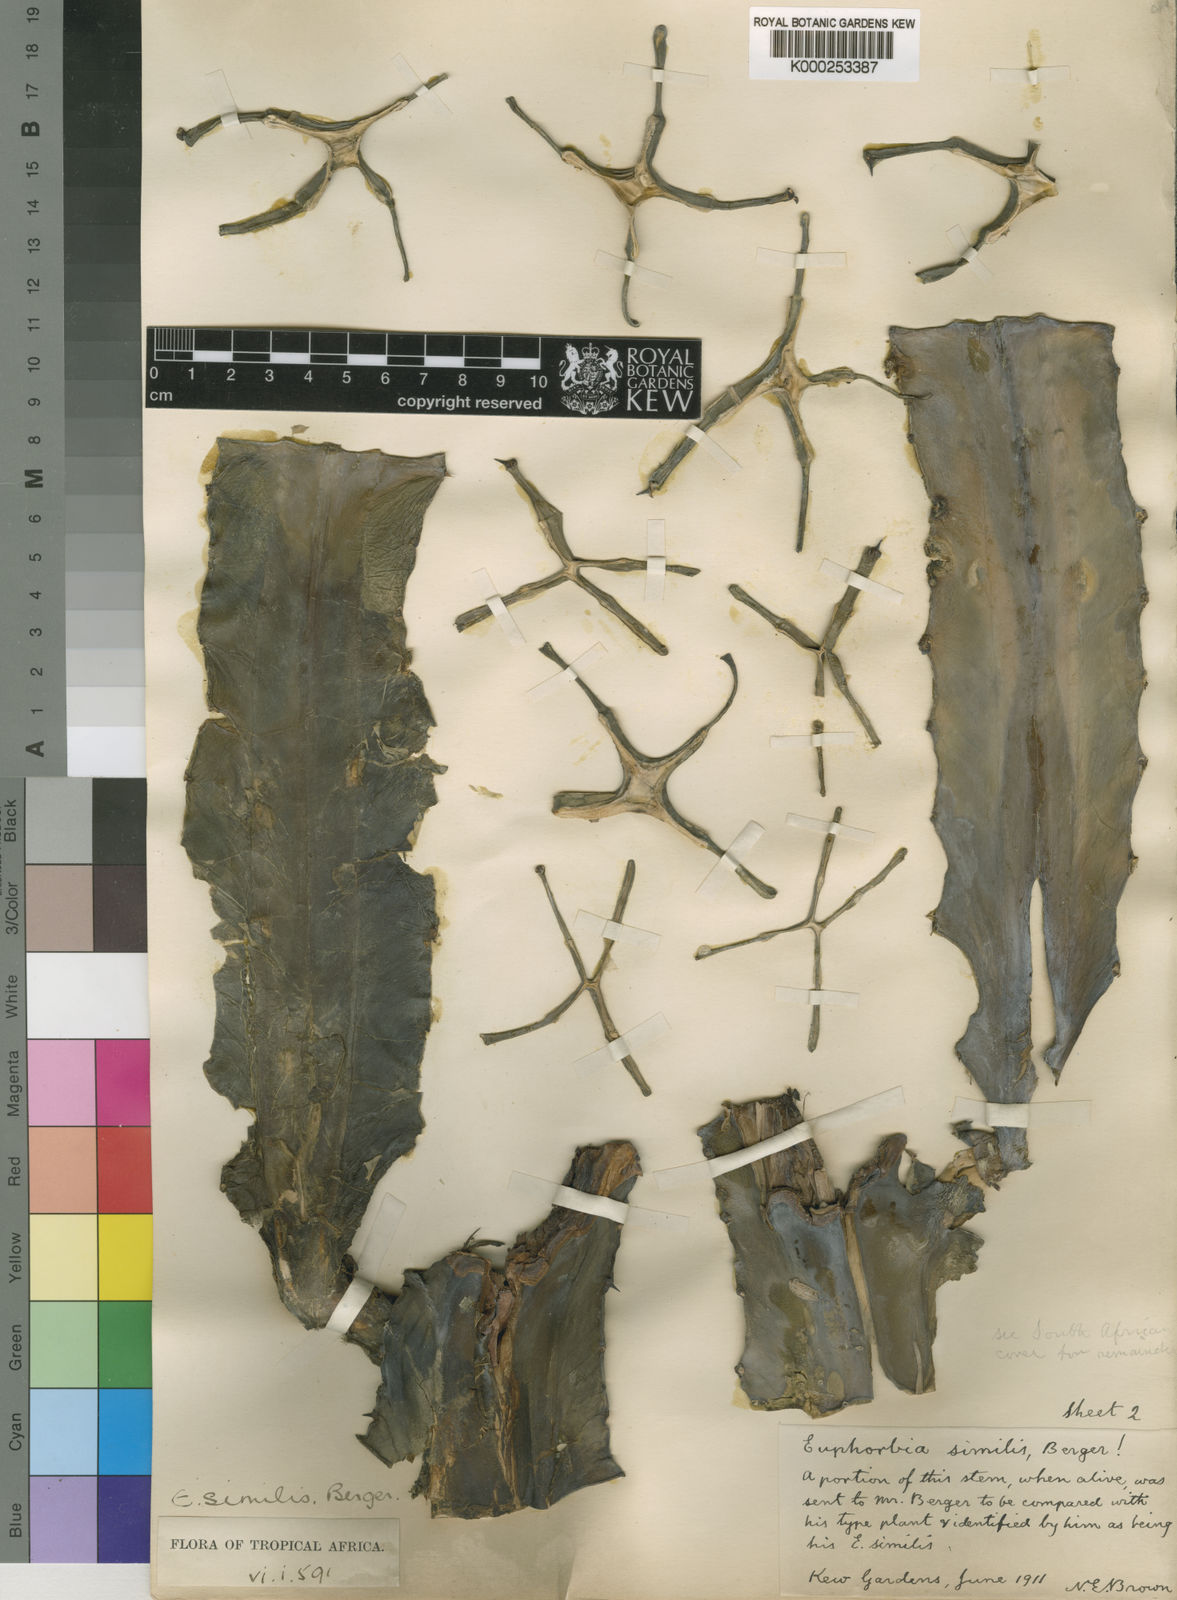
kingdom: Plantae
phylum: Tracheophyta
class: Magnoliopsida
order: Malpighiales
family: Euphorbiaceae
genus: Euphorbia
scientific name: Euphorbia ingens
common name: Cactus spurge
